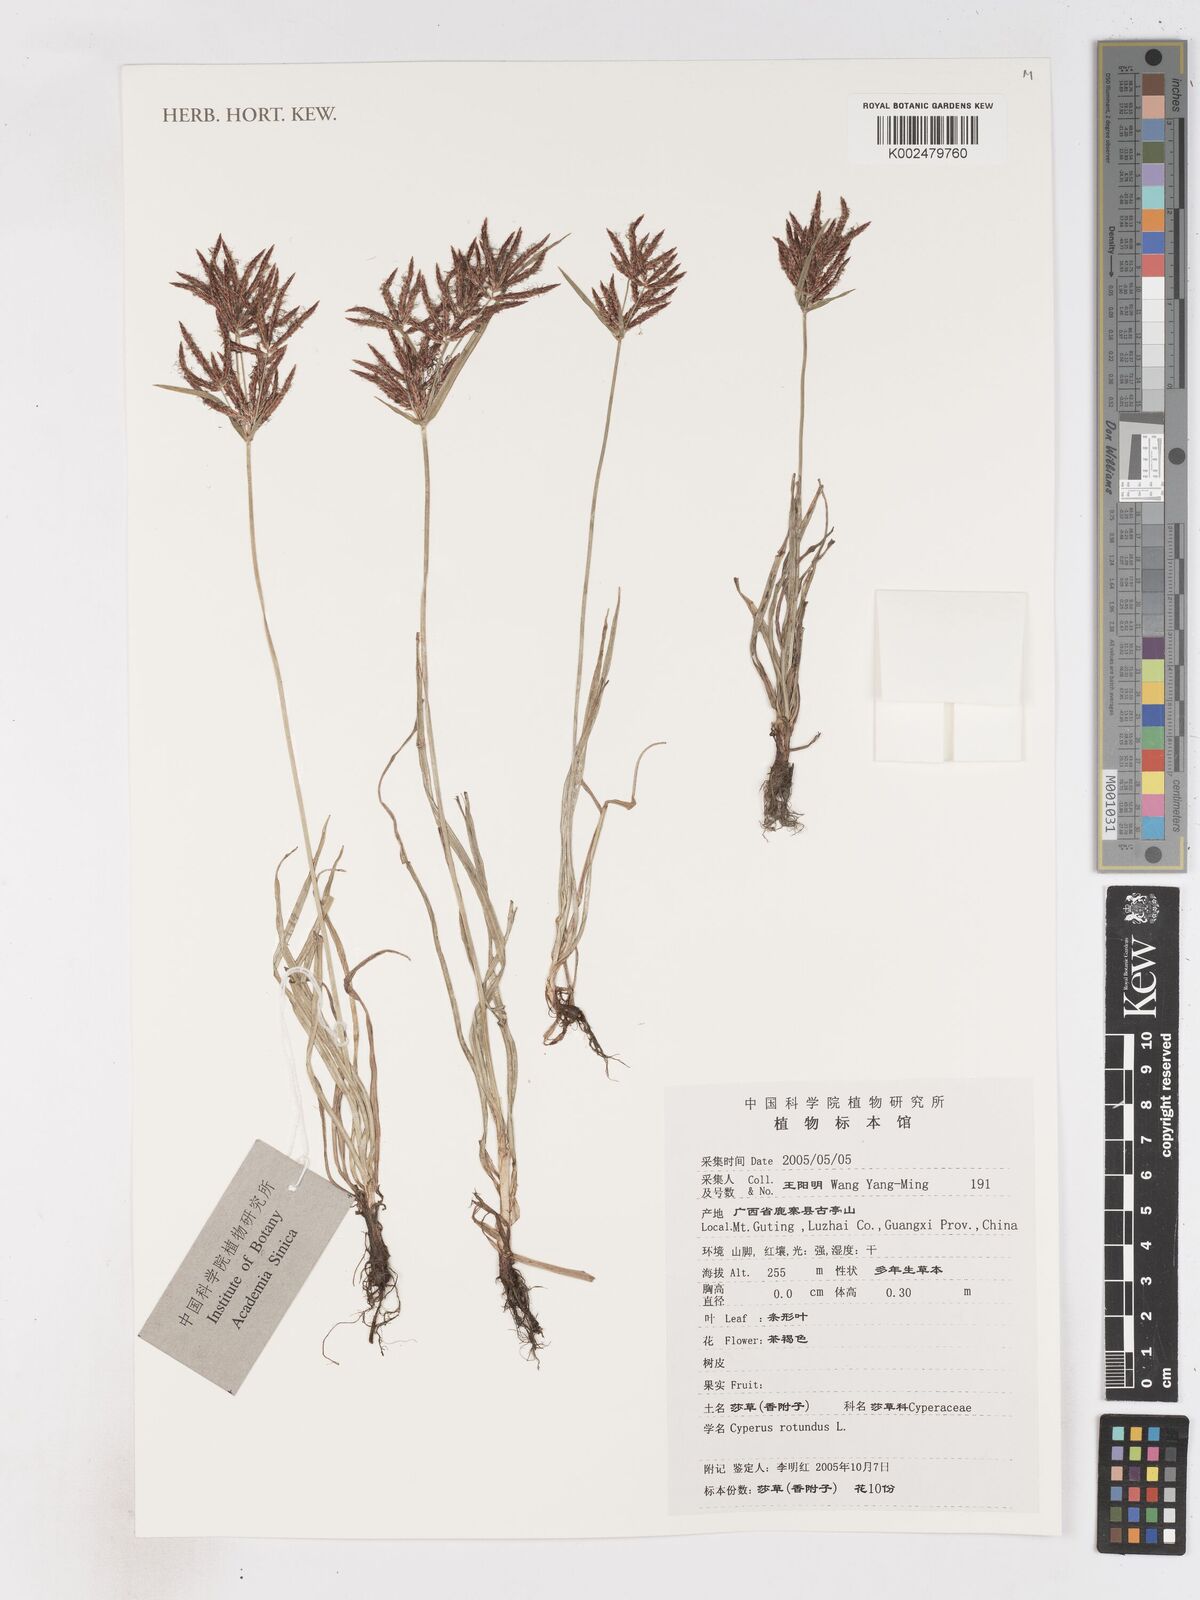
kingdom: Plantae
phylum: Tracheophyta
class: Liliopsida
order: Poales
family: Cyperaceae
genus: Cyperus
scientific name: Cyperus rotundus
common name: Nutgrass
